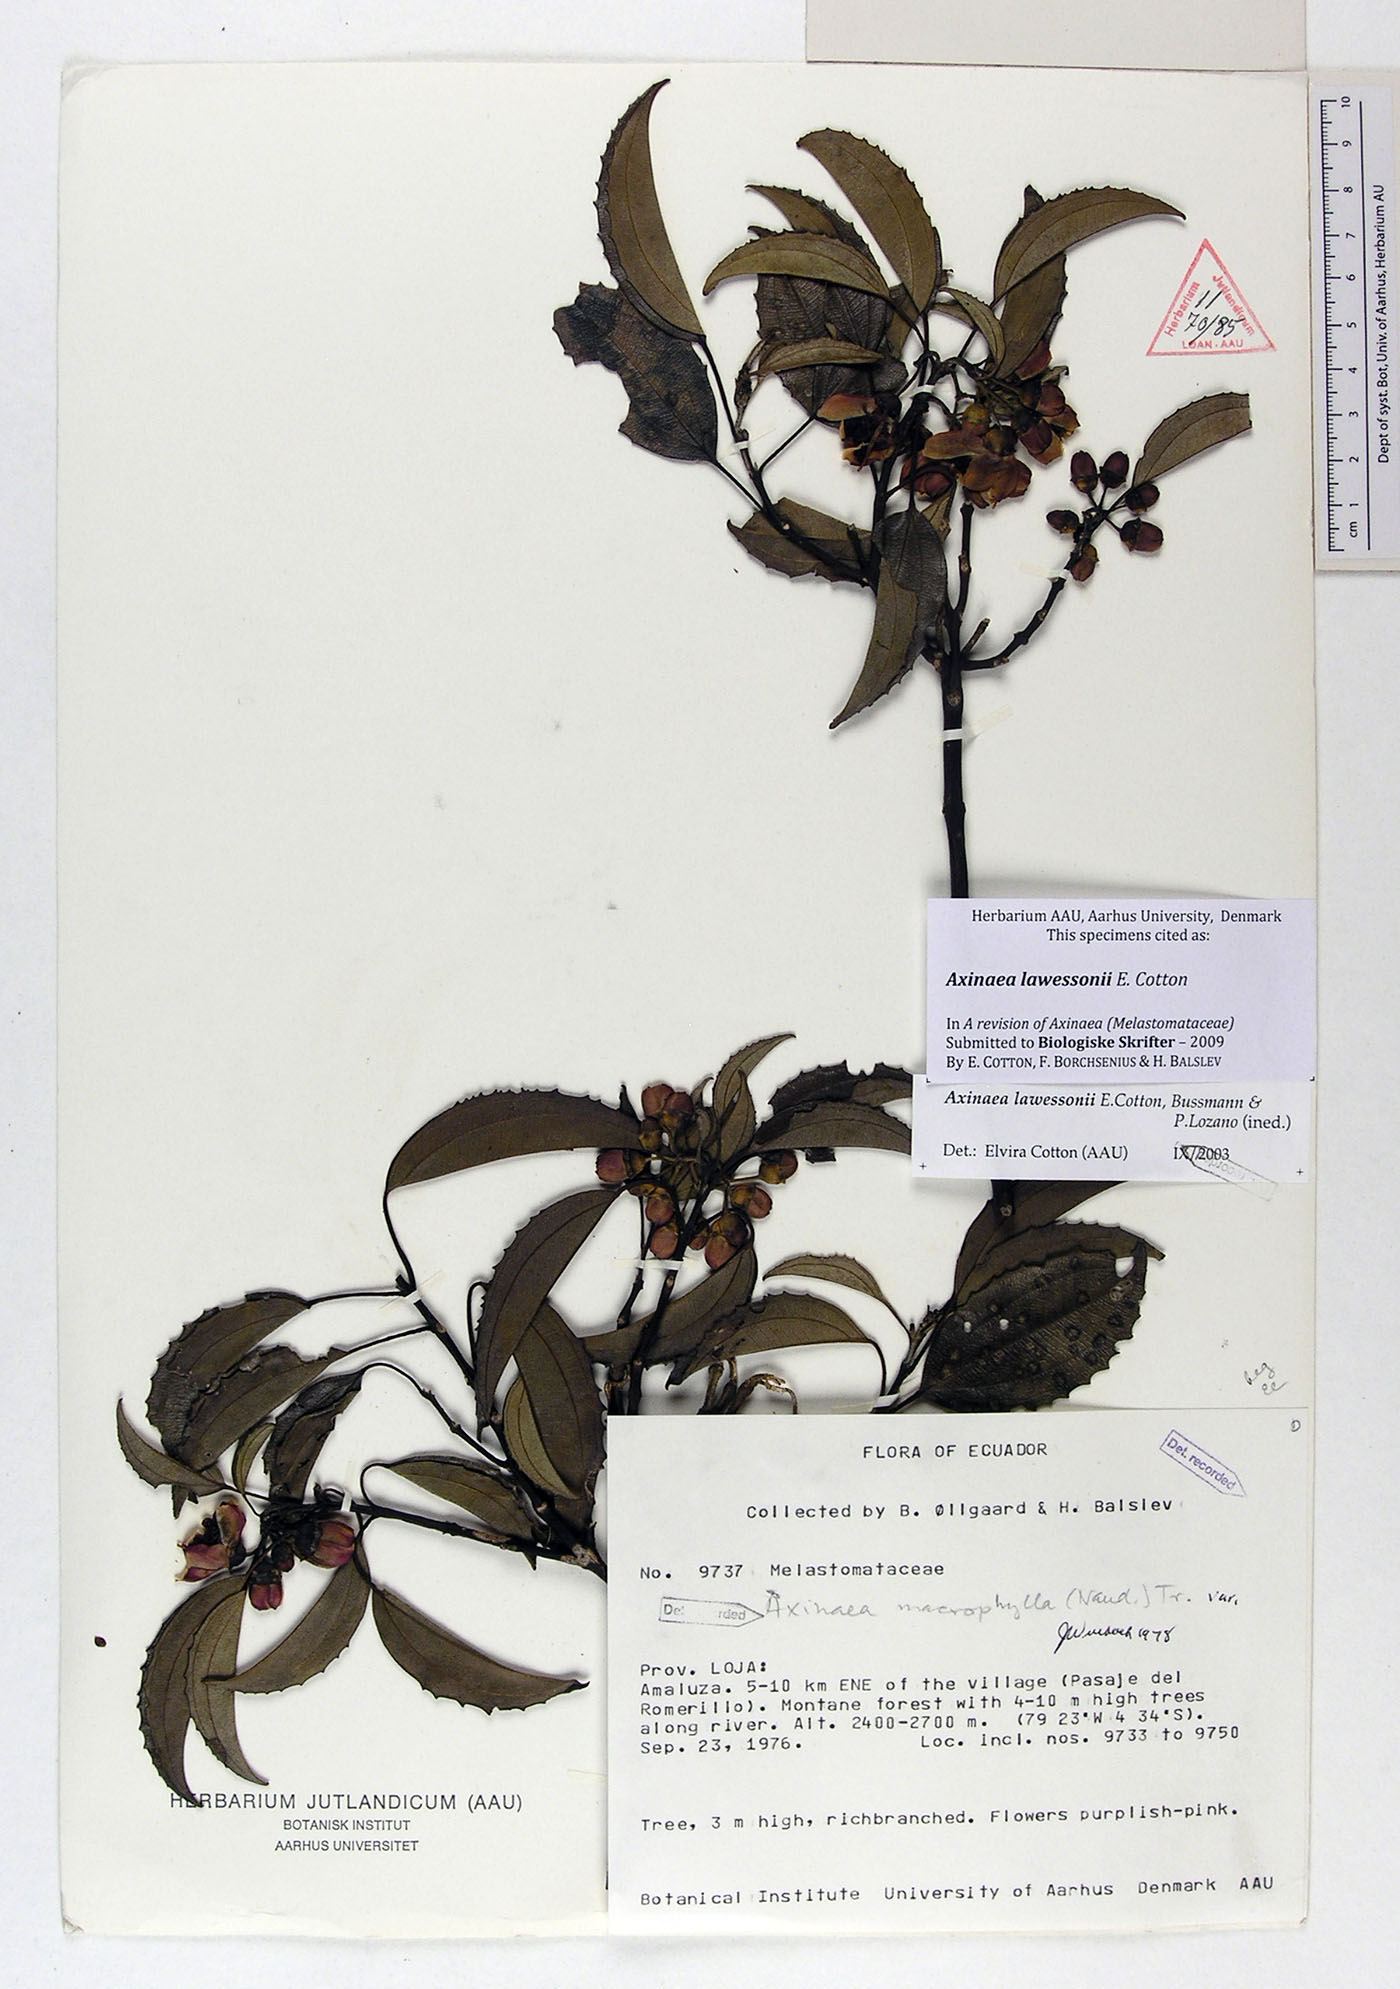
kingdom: Plantae
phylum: Tracheophyta
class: Magnoliopsida
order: Myrtales
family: Melastomataceae
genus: Axinaea
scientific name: Axinaea lawessonii
